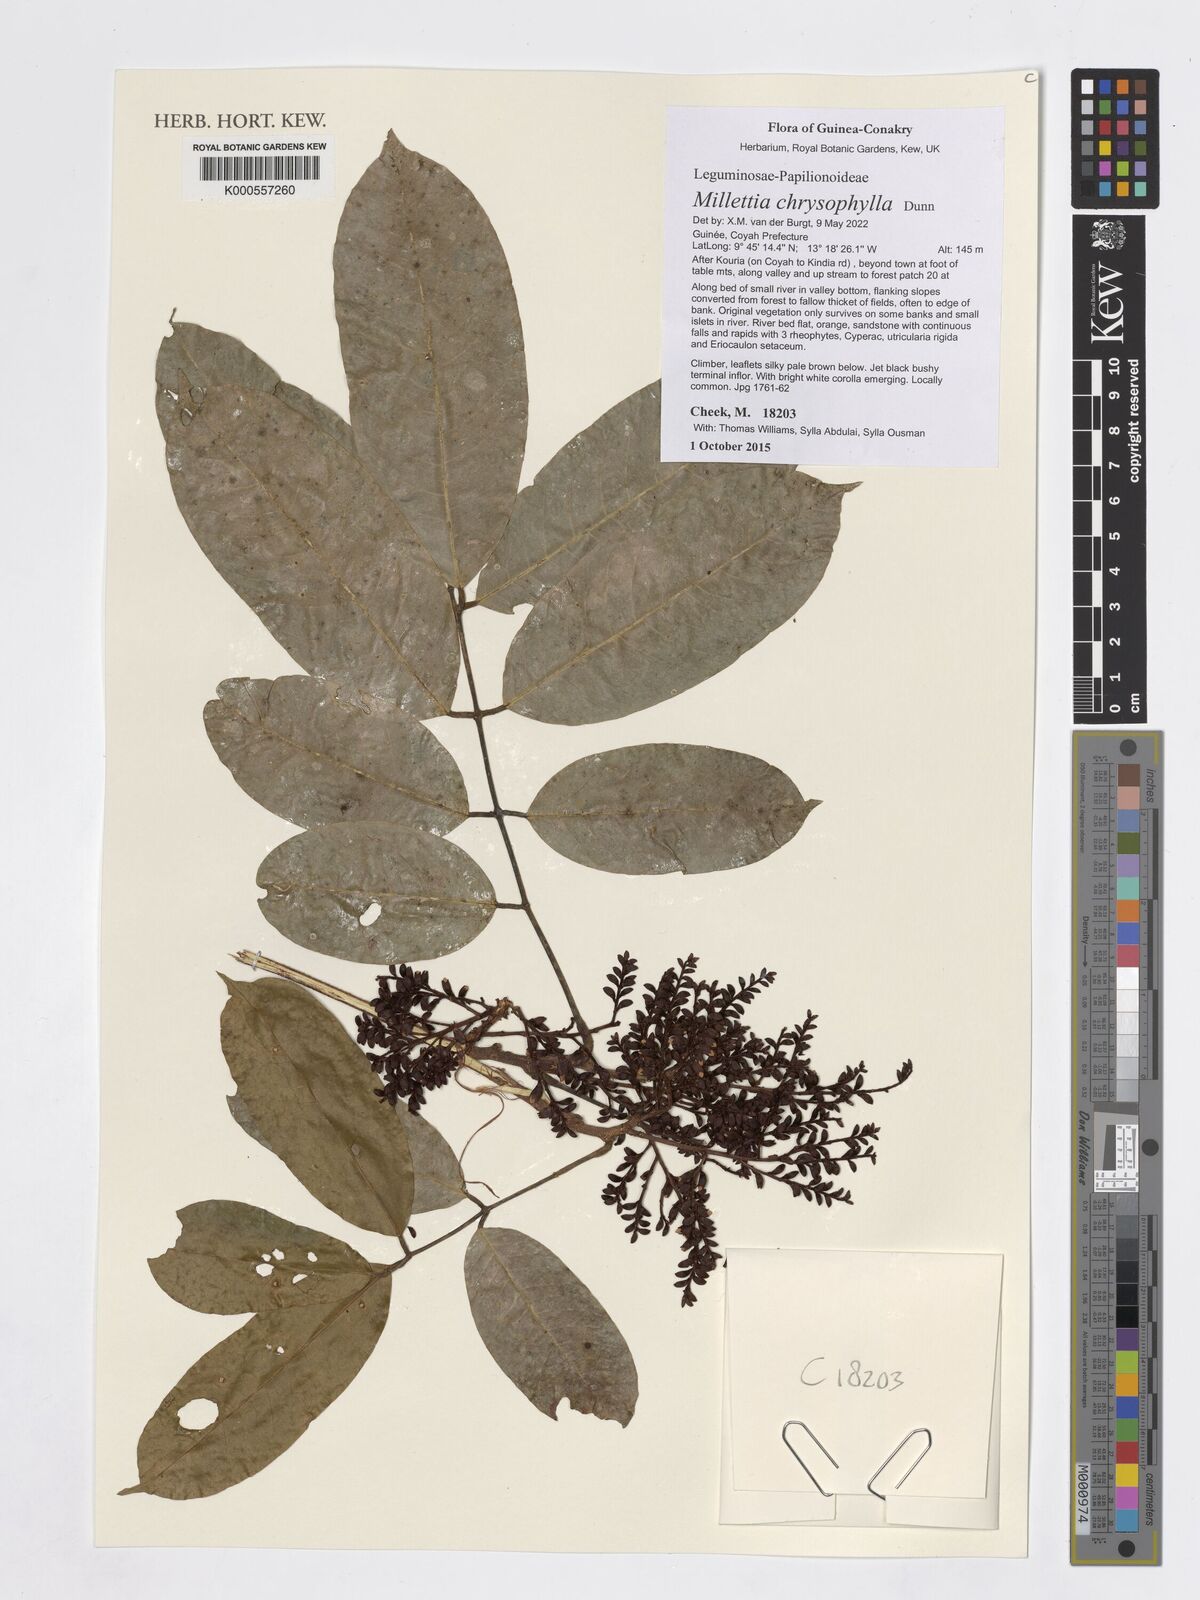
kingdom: Plantae
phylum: Tracheophyta
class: Magnoliopsida
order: Fabales
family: Fabaceae
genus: Millettia
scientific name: Millettia chrysophylla
